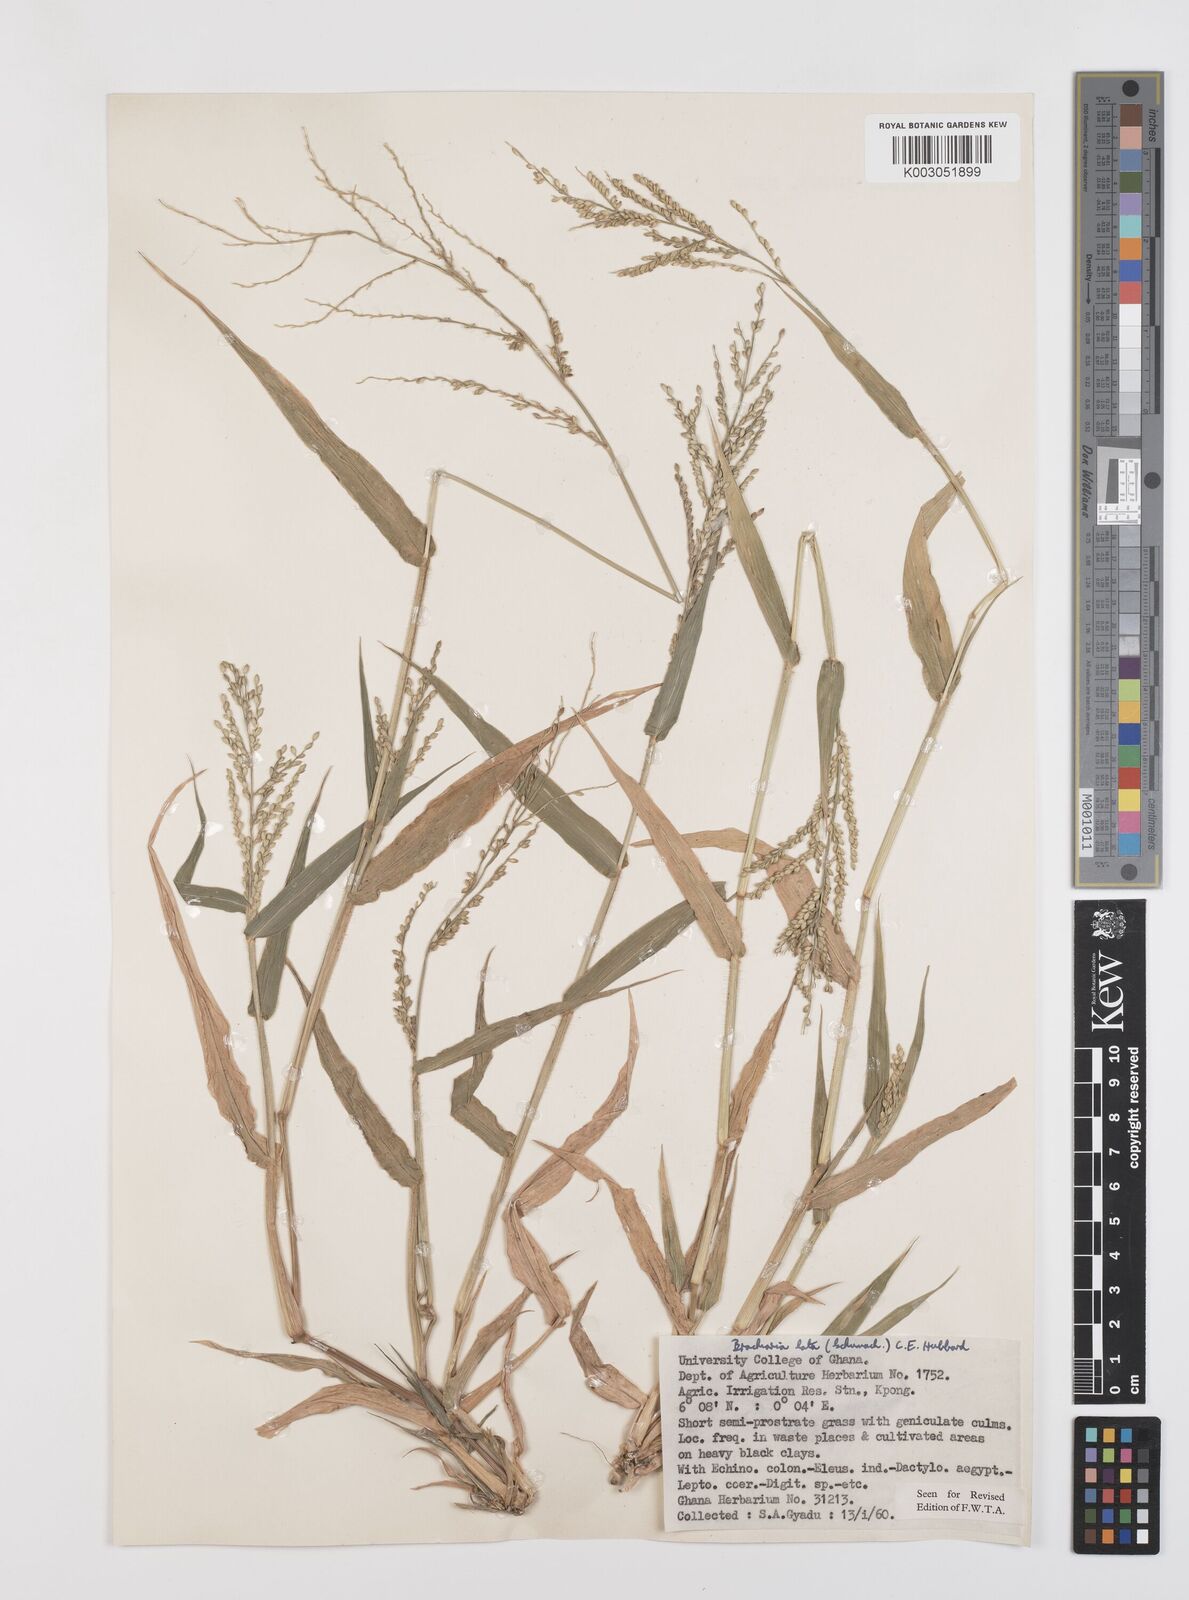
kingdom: Plantae
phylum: Tracheophyta
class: Liliopsida
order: Poales
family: Poaceae
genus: Urochloa
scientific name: Urochloa lata
